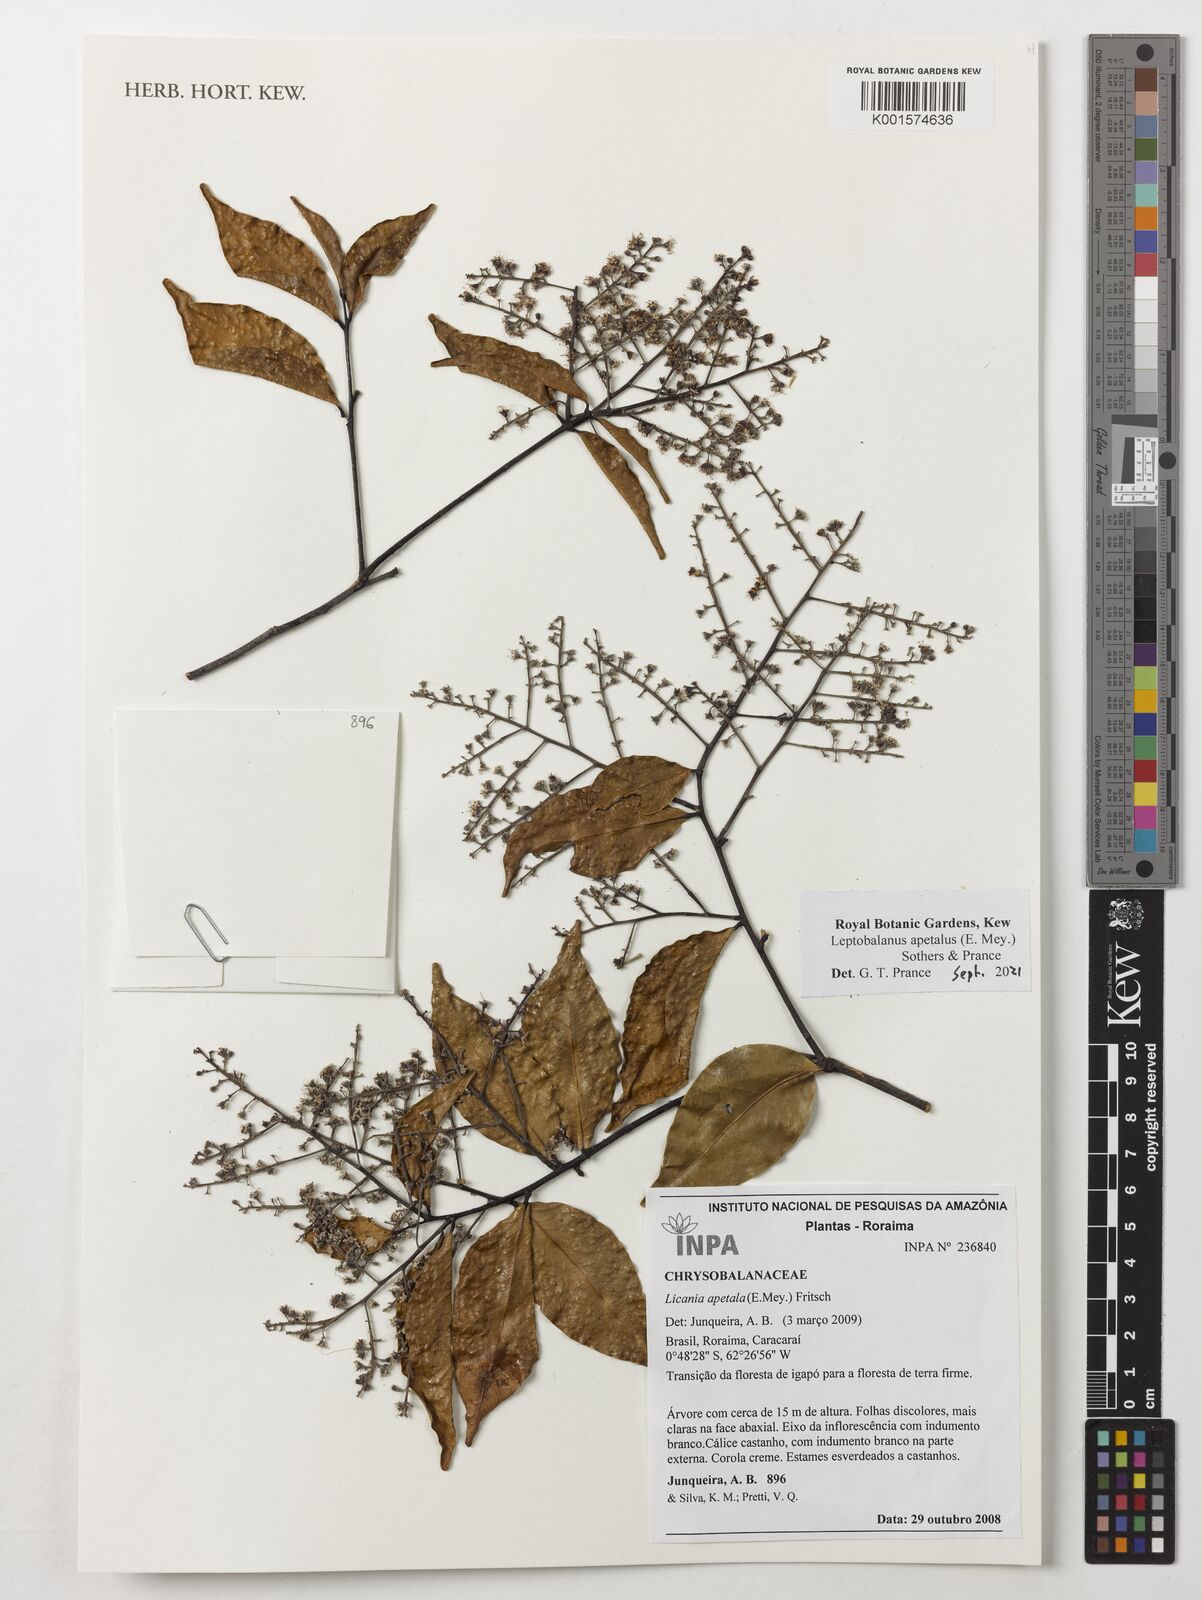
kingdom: Plantae
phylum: Tracheophyta
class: Magnoliopsida
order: Malpighiales
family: Chrysobalanaceae
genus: Leptobalanus
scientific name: Leptobalanus apetalus
